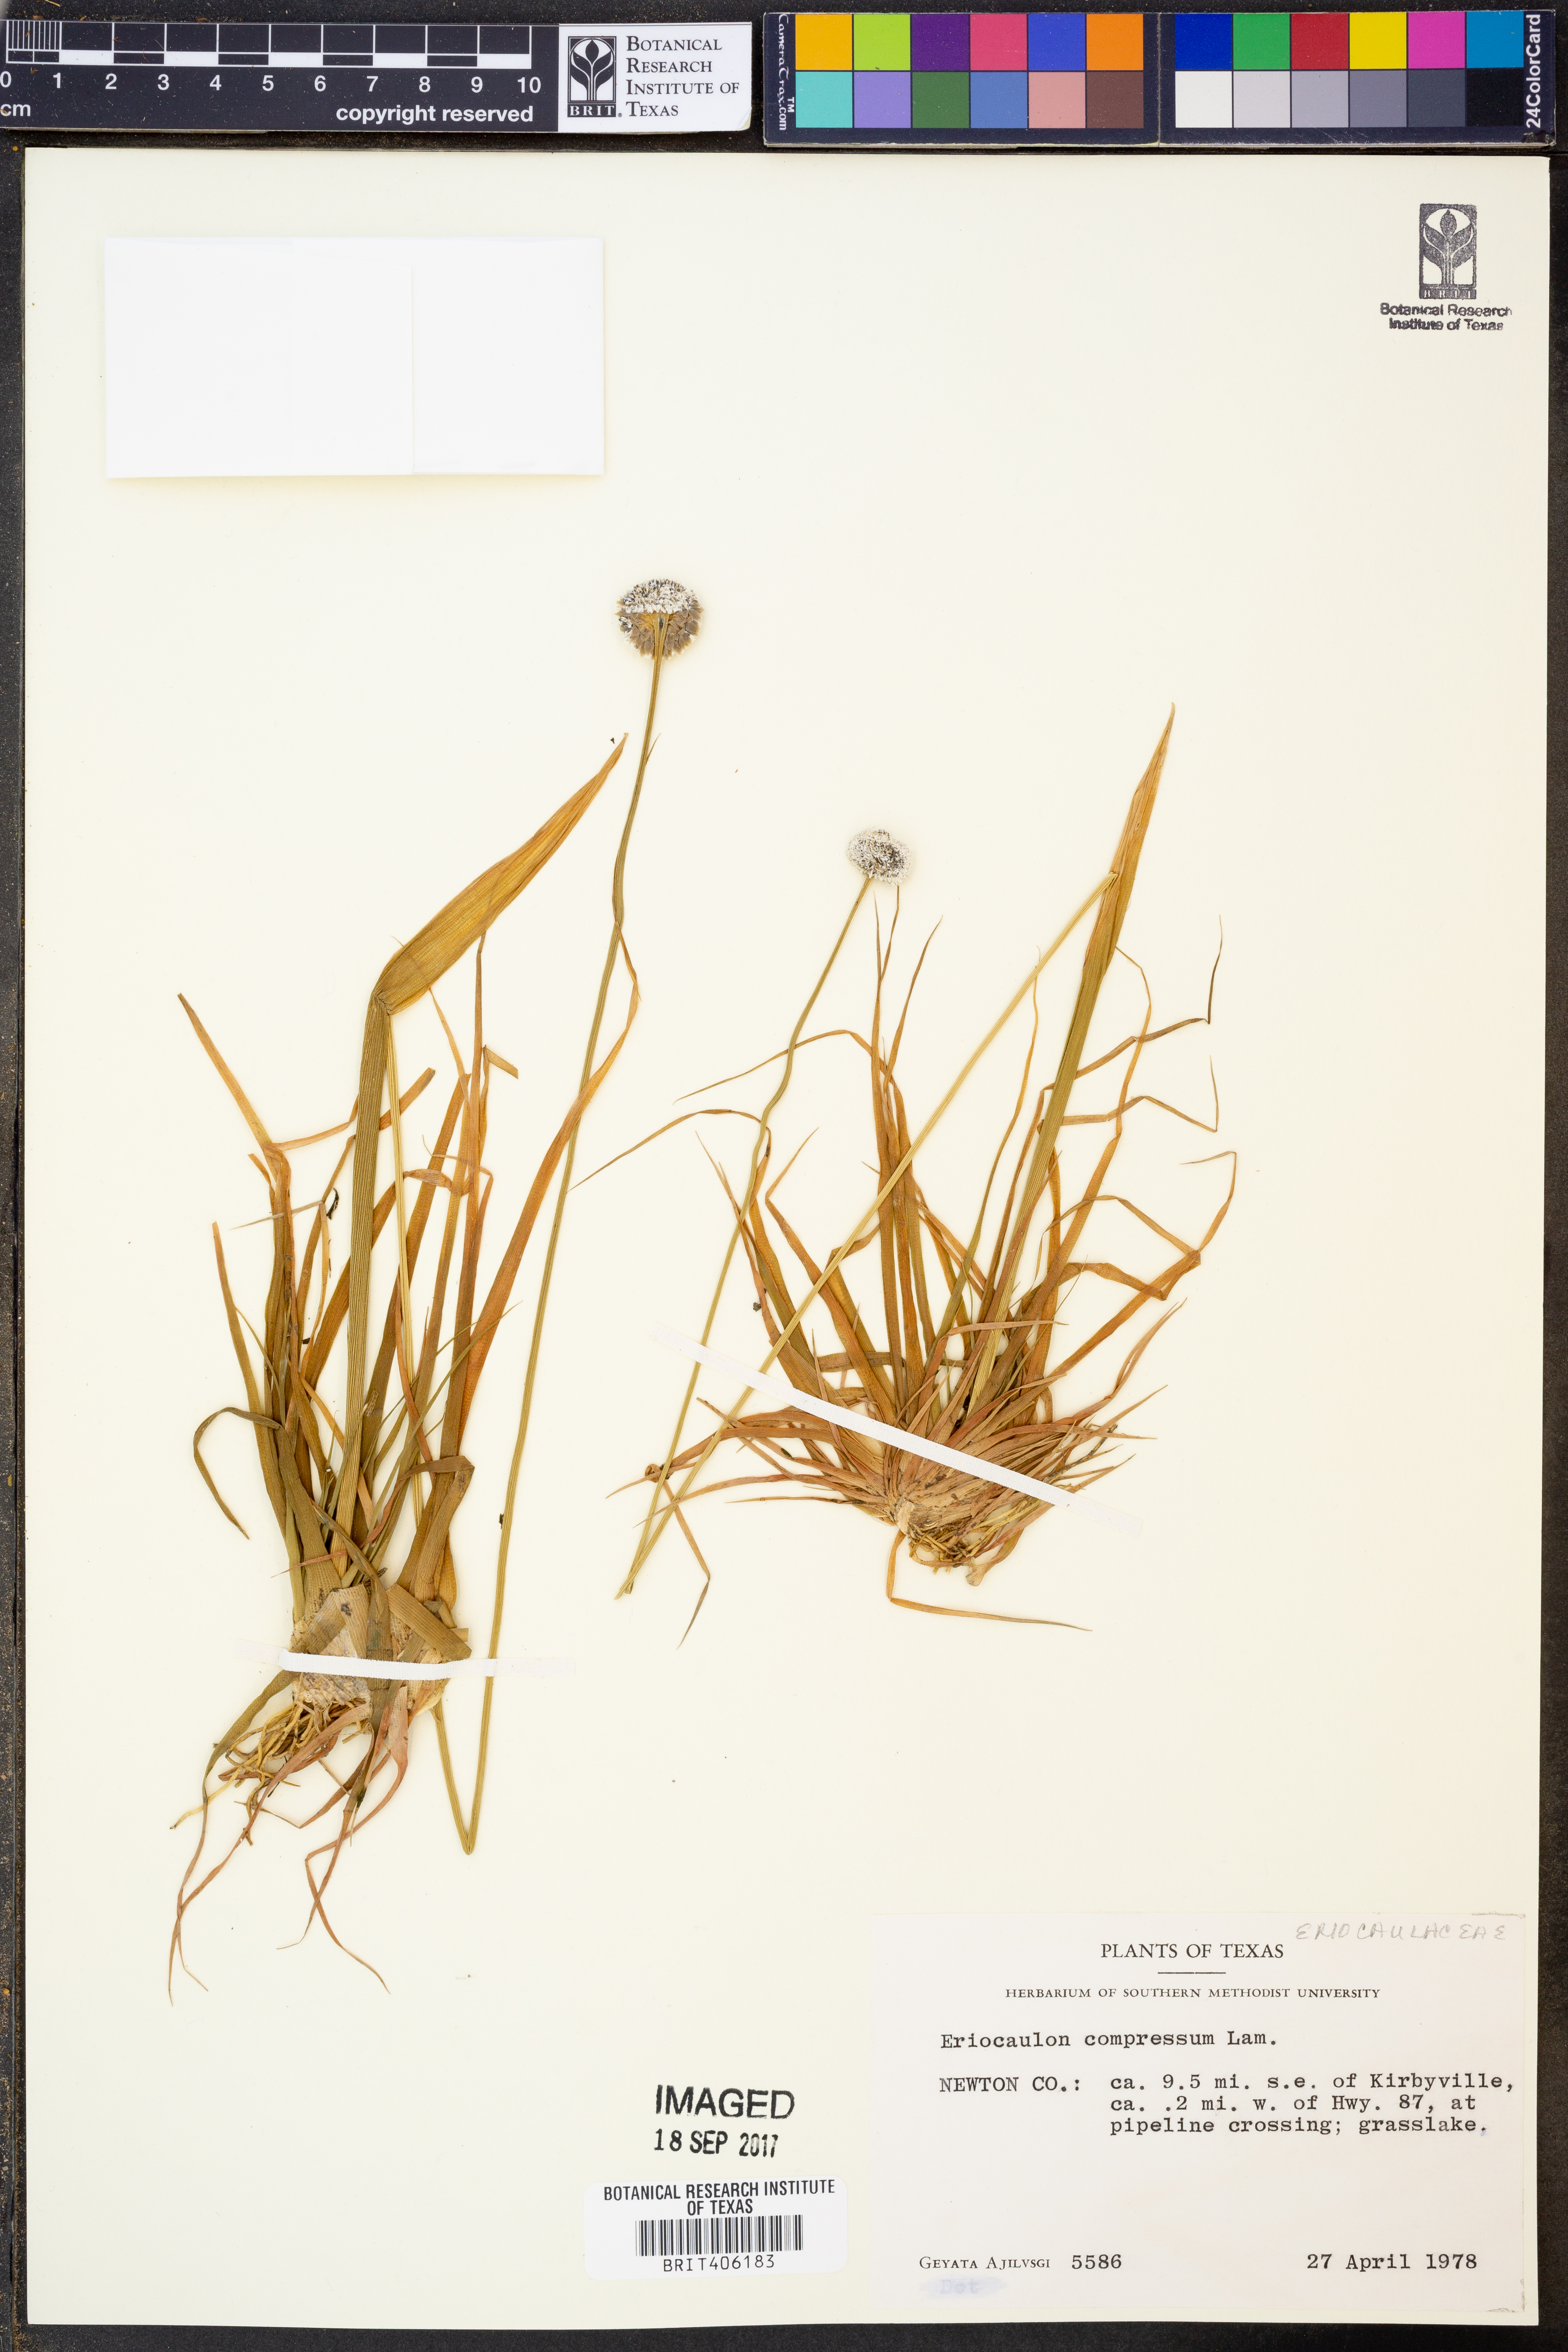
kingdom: Plantae
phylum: Tracheophyta
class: Liliopsida
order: Poales
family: Eriocaulaceae
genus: Eriocaulon
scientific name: Eriocaulon compressum
